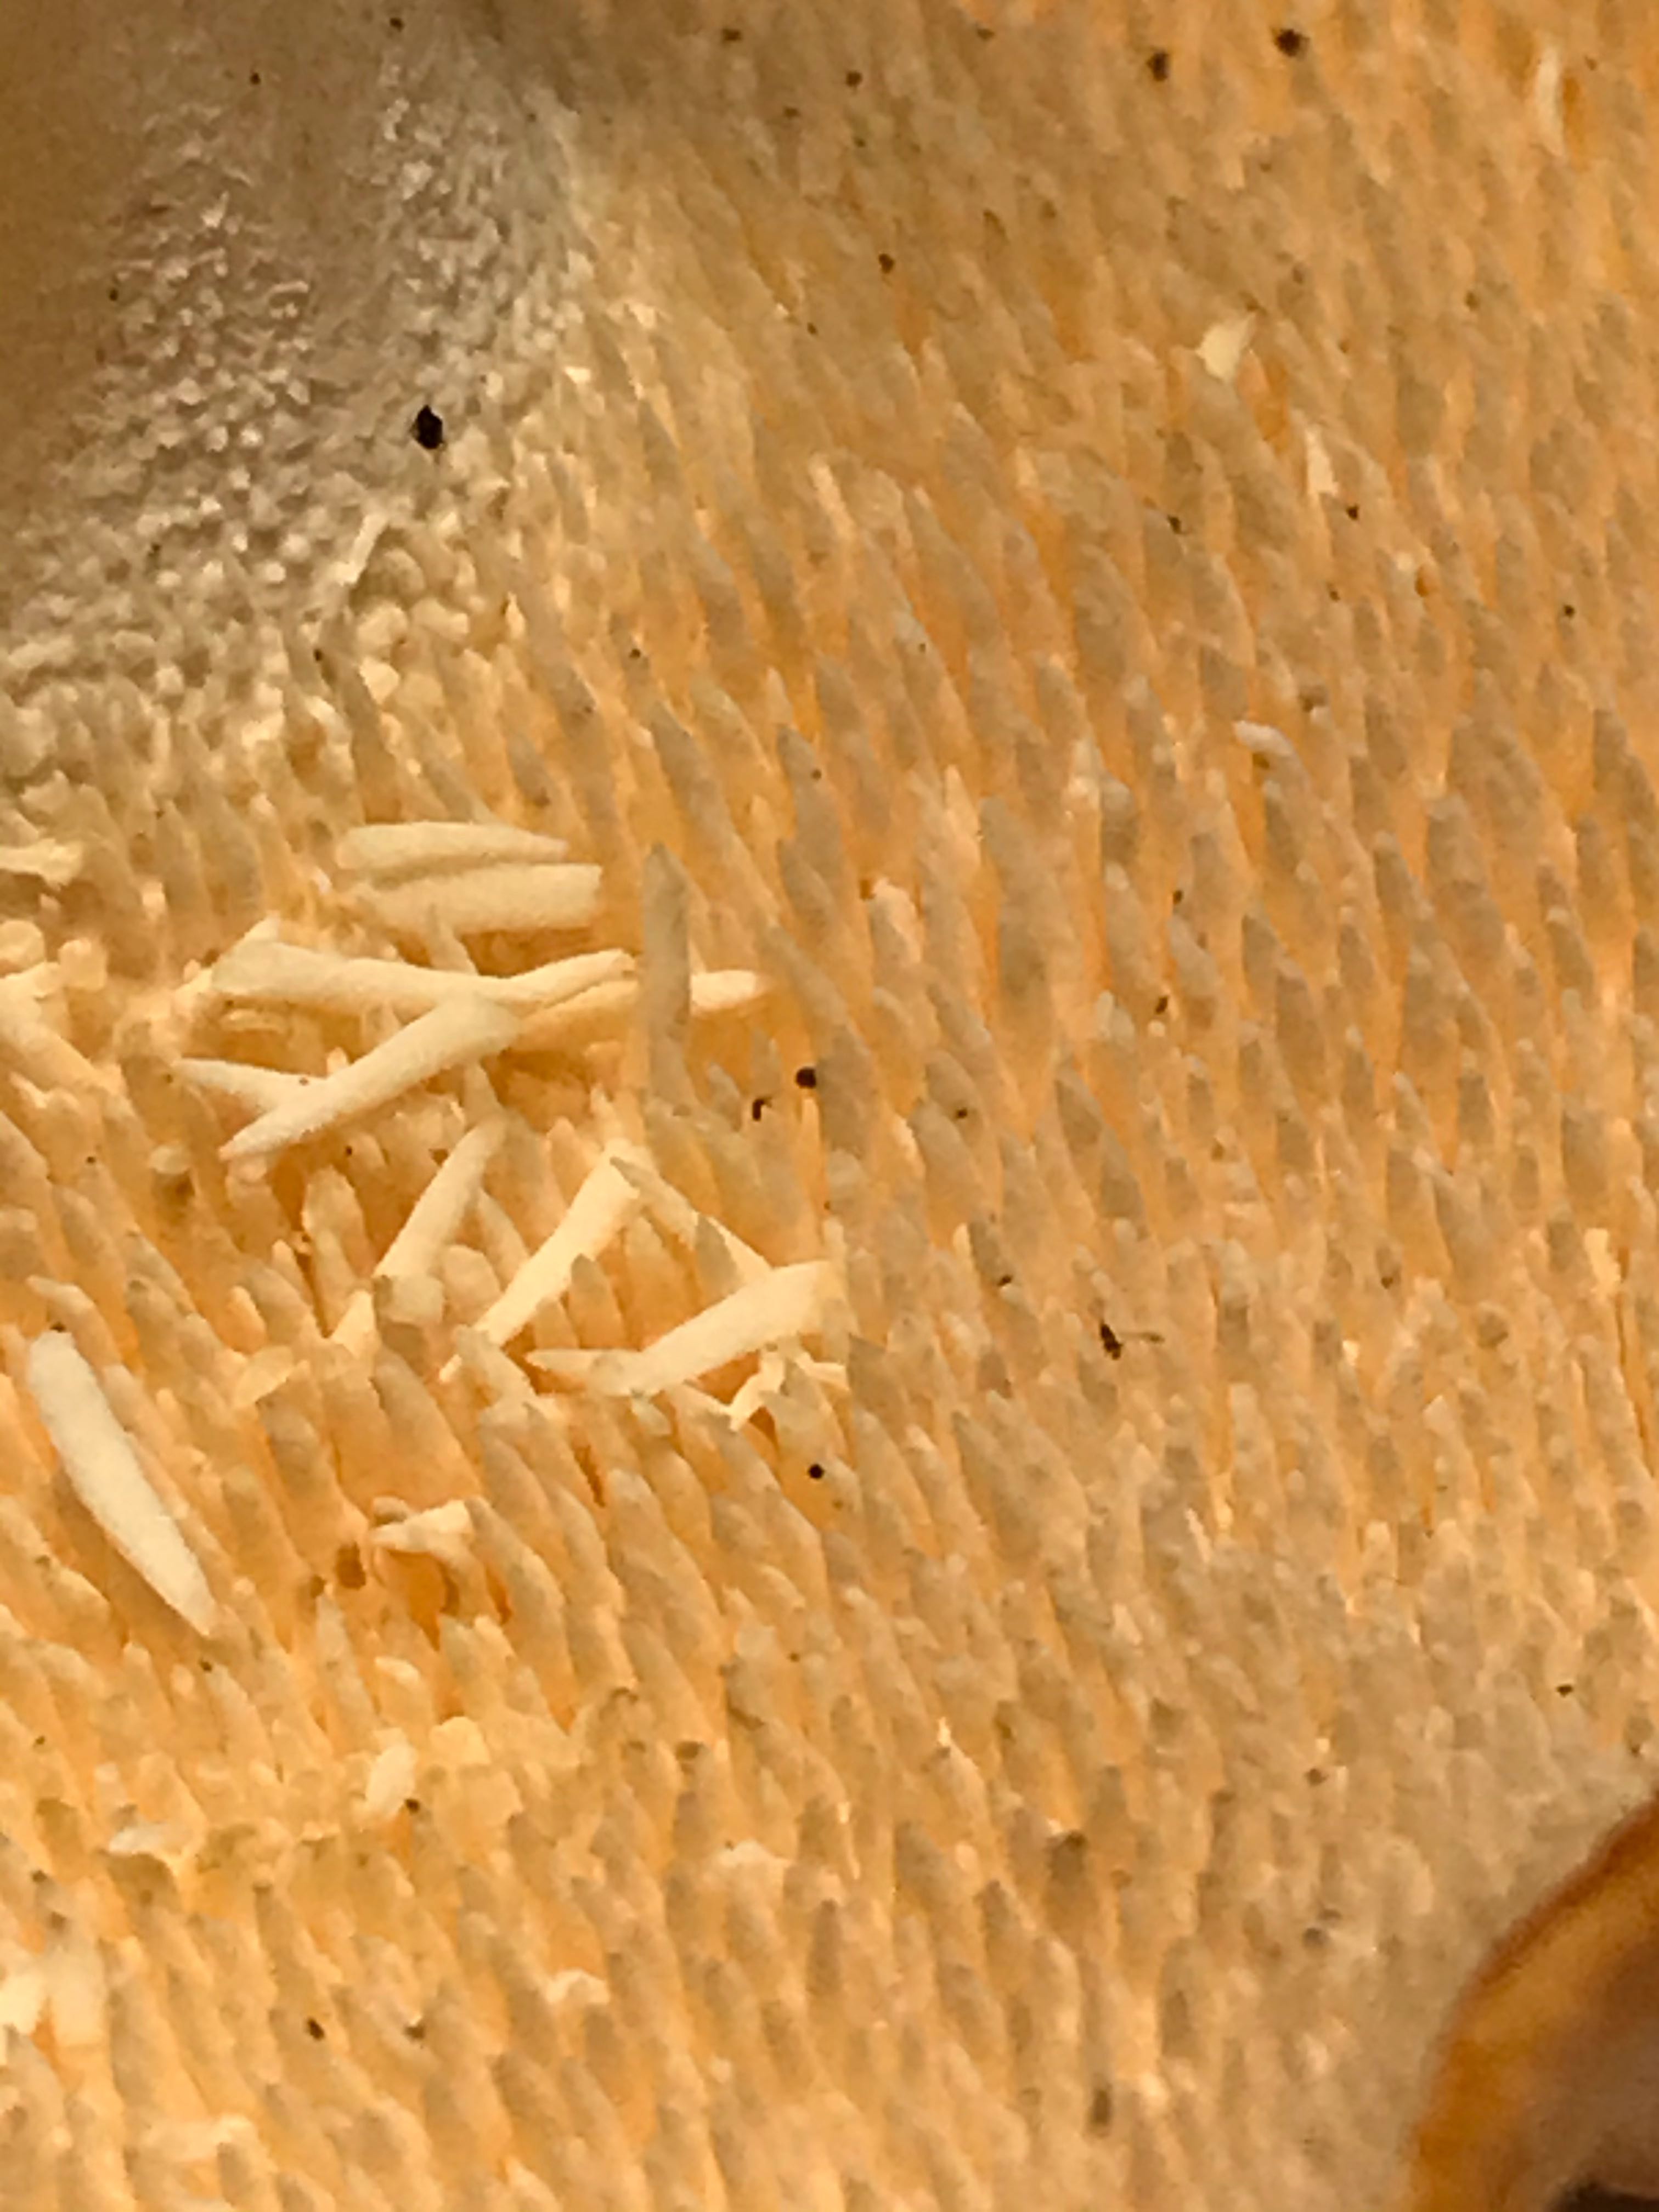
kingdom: Fungi
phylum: Basidiomycota
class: Agaricomycetes
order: Cantharellales
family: Hydnaceae
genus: Hydnum
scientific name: Hydnum
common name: pigsvamp
